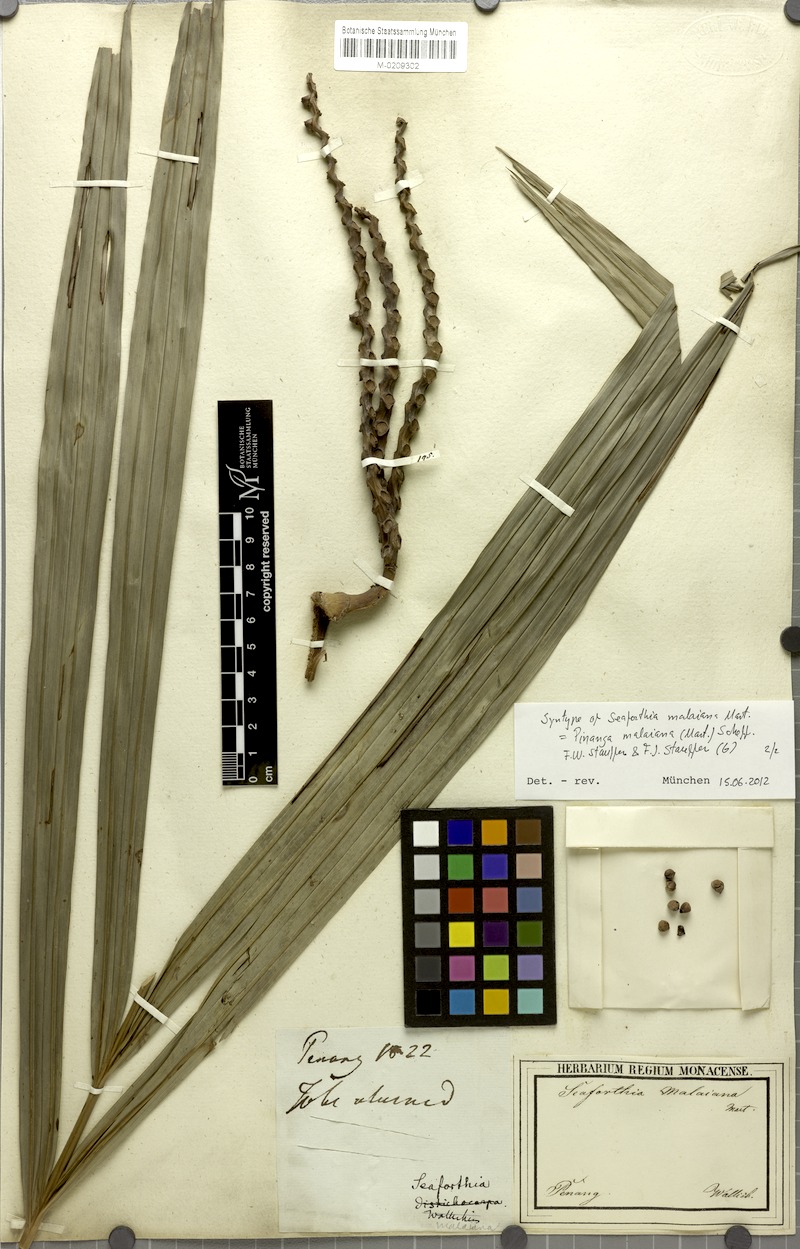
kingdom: Plantae
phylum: Tracheophyta
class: Liliopsida
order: Arecales
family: Arecaceae
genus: Pinanga
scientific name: Pinanga malaiana
